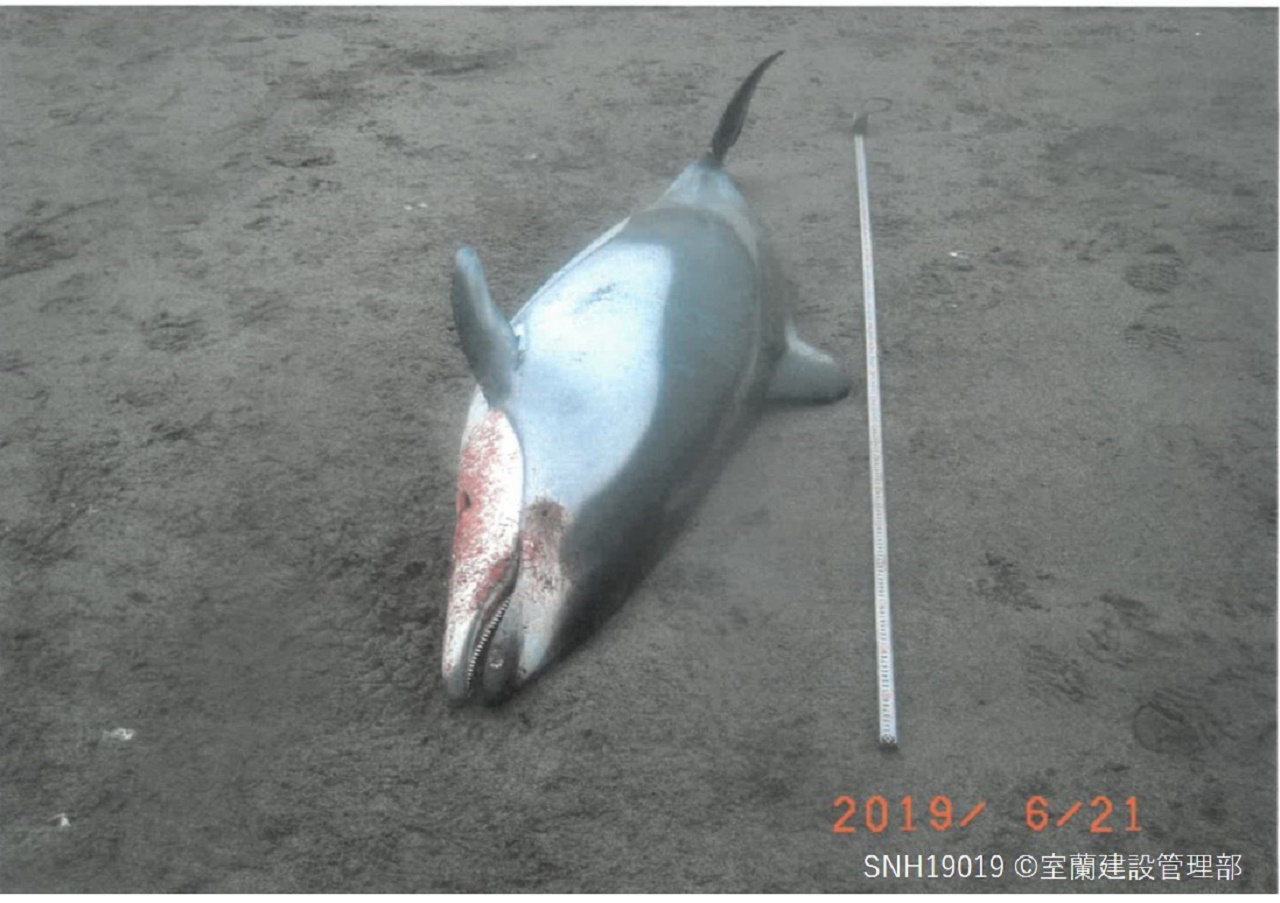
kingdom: Animalia
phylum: Chordata
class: Mammalia
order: Cetacea
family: Delphinidae
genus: Lagenorhynchus
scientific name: Lagenorhynchus obliquidens
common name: Pacific white-sided dolphin
